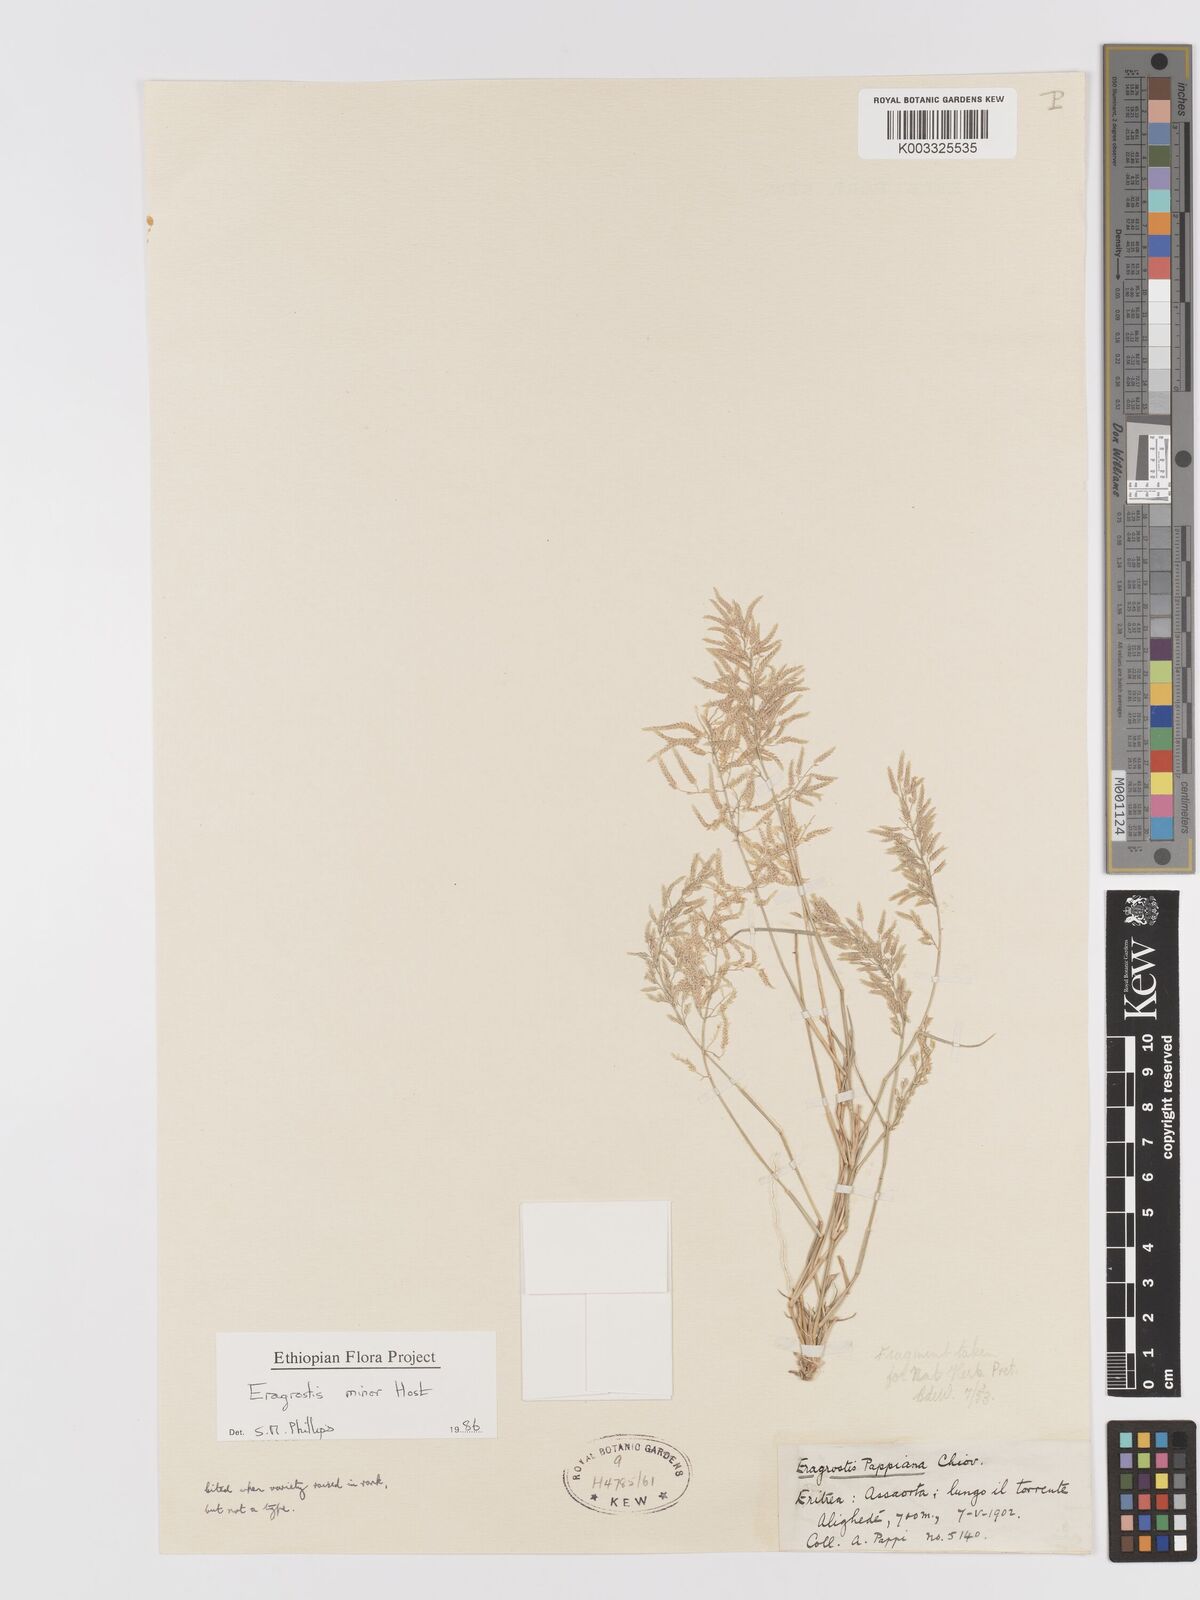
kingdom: Plantae
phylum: Tracheophyta
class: Liliopsida
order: Poales
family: Poaceae
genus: Eragrostis
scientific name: Eragrostis minor
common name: Small love-grass
